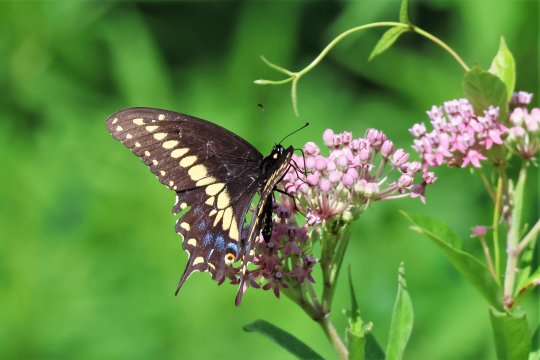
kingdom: Animalia
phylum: Arthropoda
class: Insecta
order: Lepidoptera
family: Papilionidae
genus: Papilio
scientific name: Papilio polyxenes
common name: Black Swallowtail
